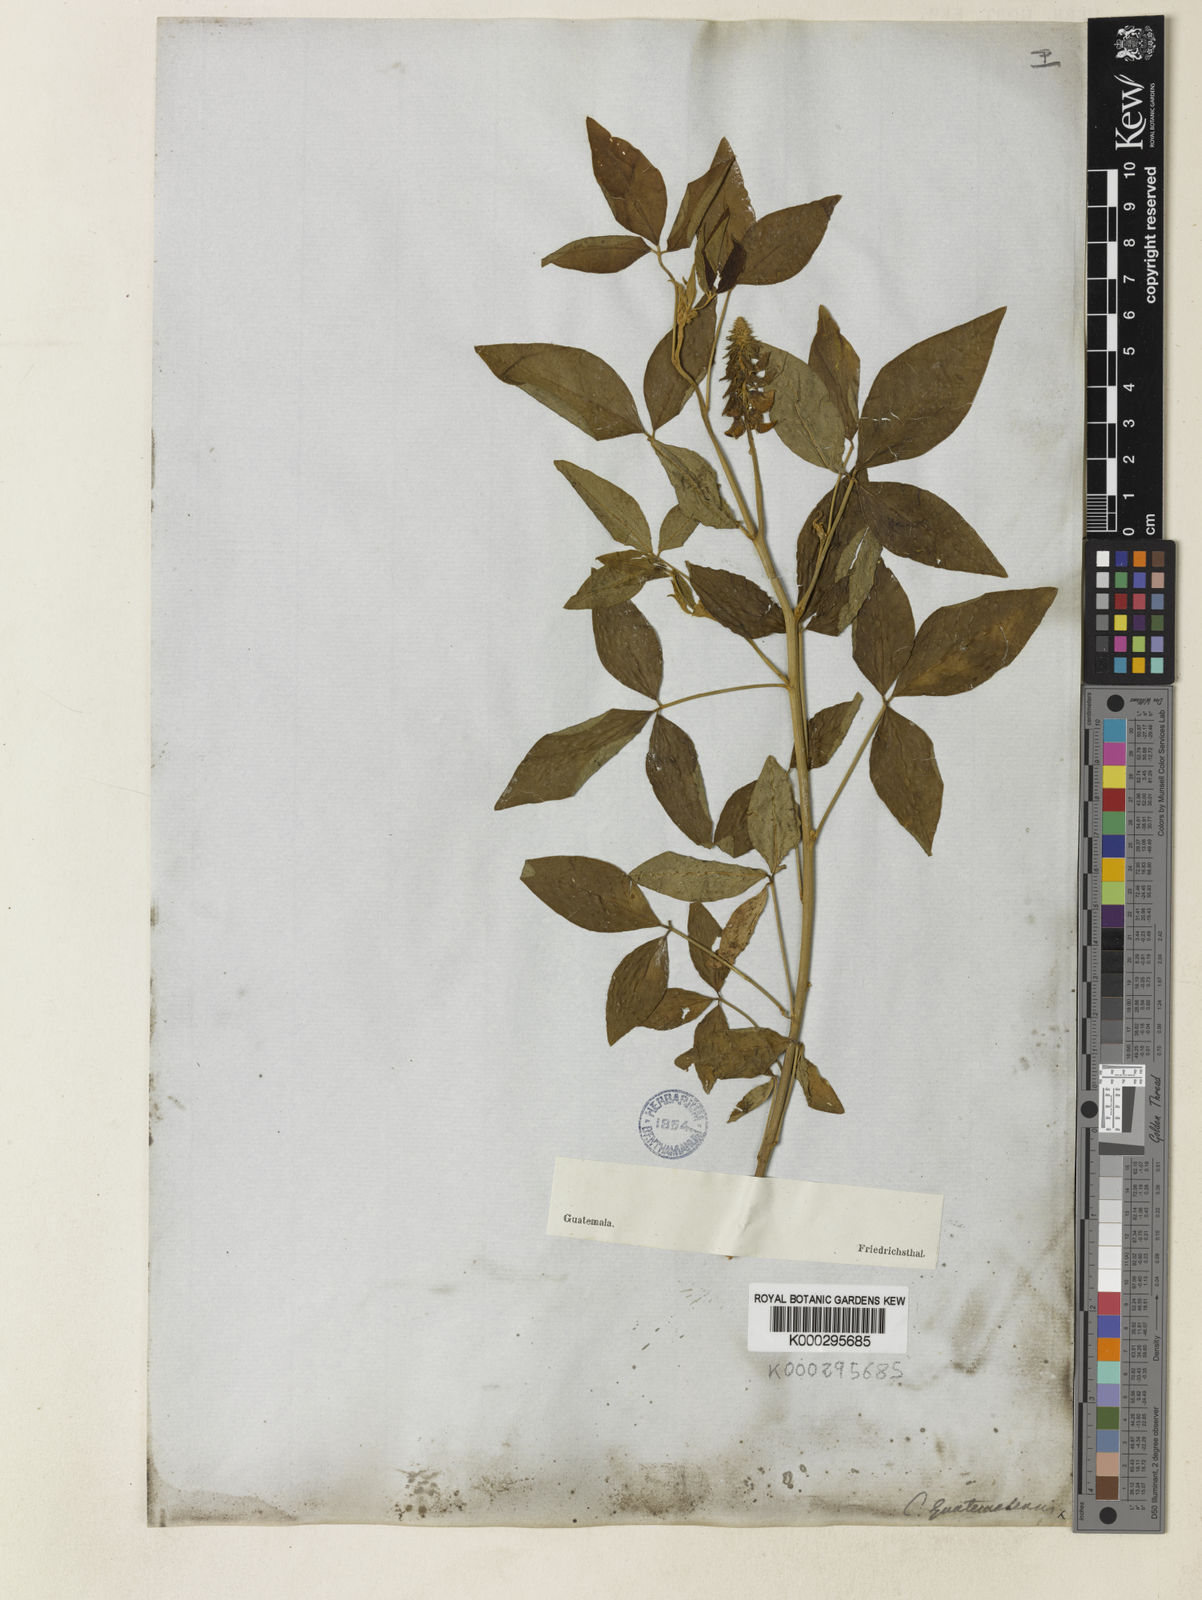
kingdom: Plantae
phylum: Tracheophyta
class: Magnoliopsida
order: Fabales
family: Fabaceae
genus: Crotalaria
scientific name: Crotalaria cajanifolia
